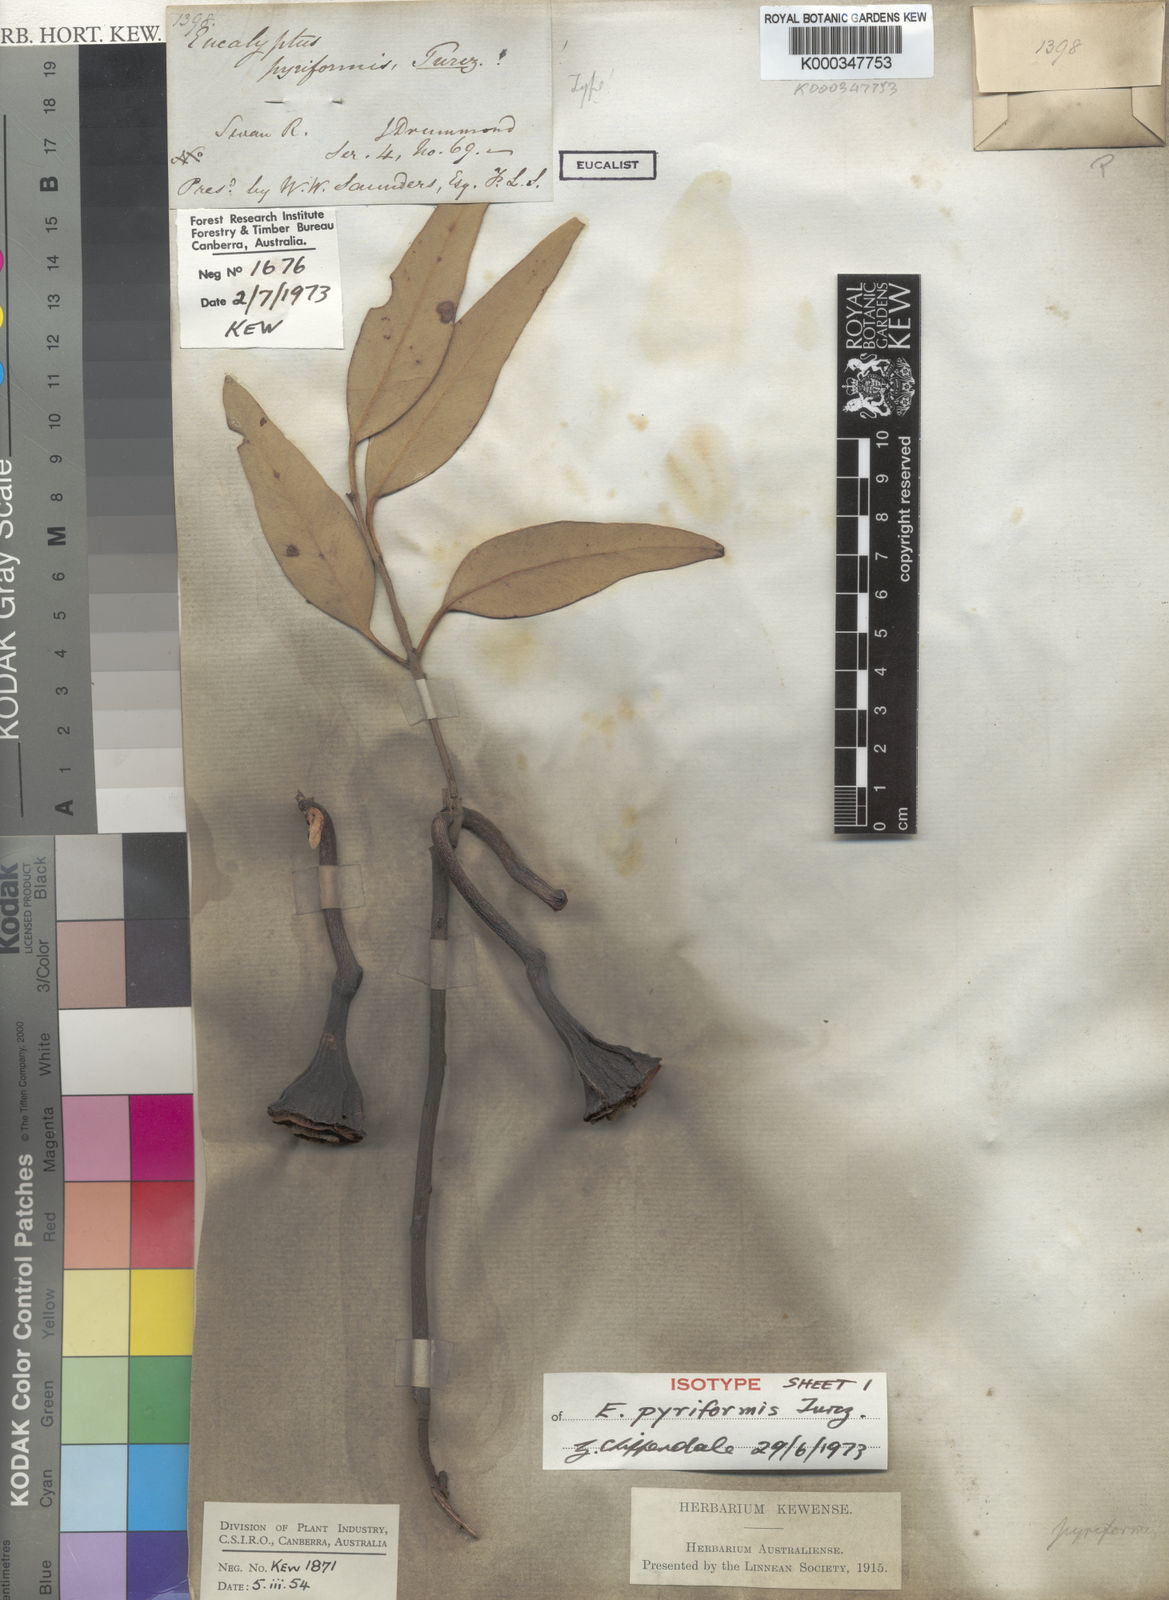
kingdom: Plantae
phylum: Tracheophyta
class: Magnoliopsida
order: Myrtales
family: Myrtaceae
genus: Eucalyptus
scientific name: Eucalyptus pyriformis
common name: Dowerin rose
